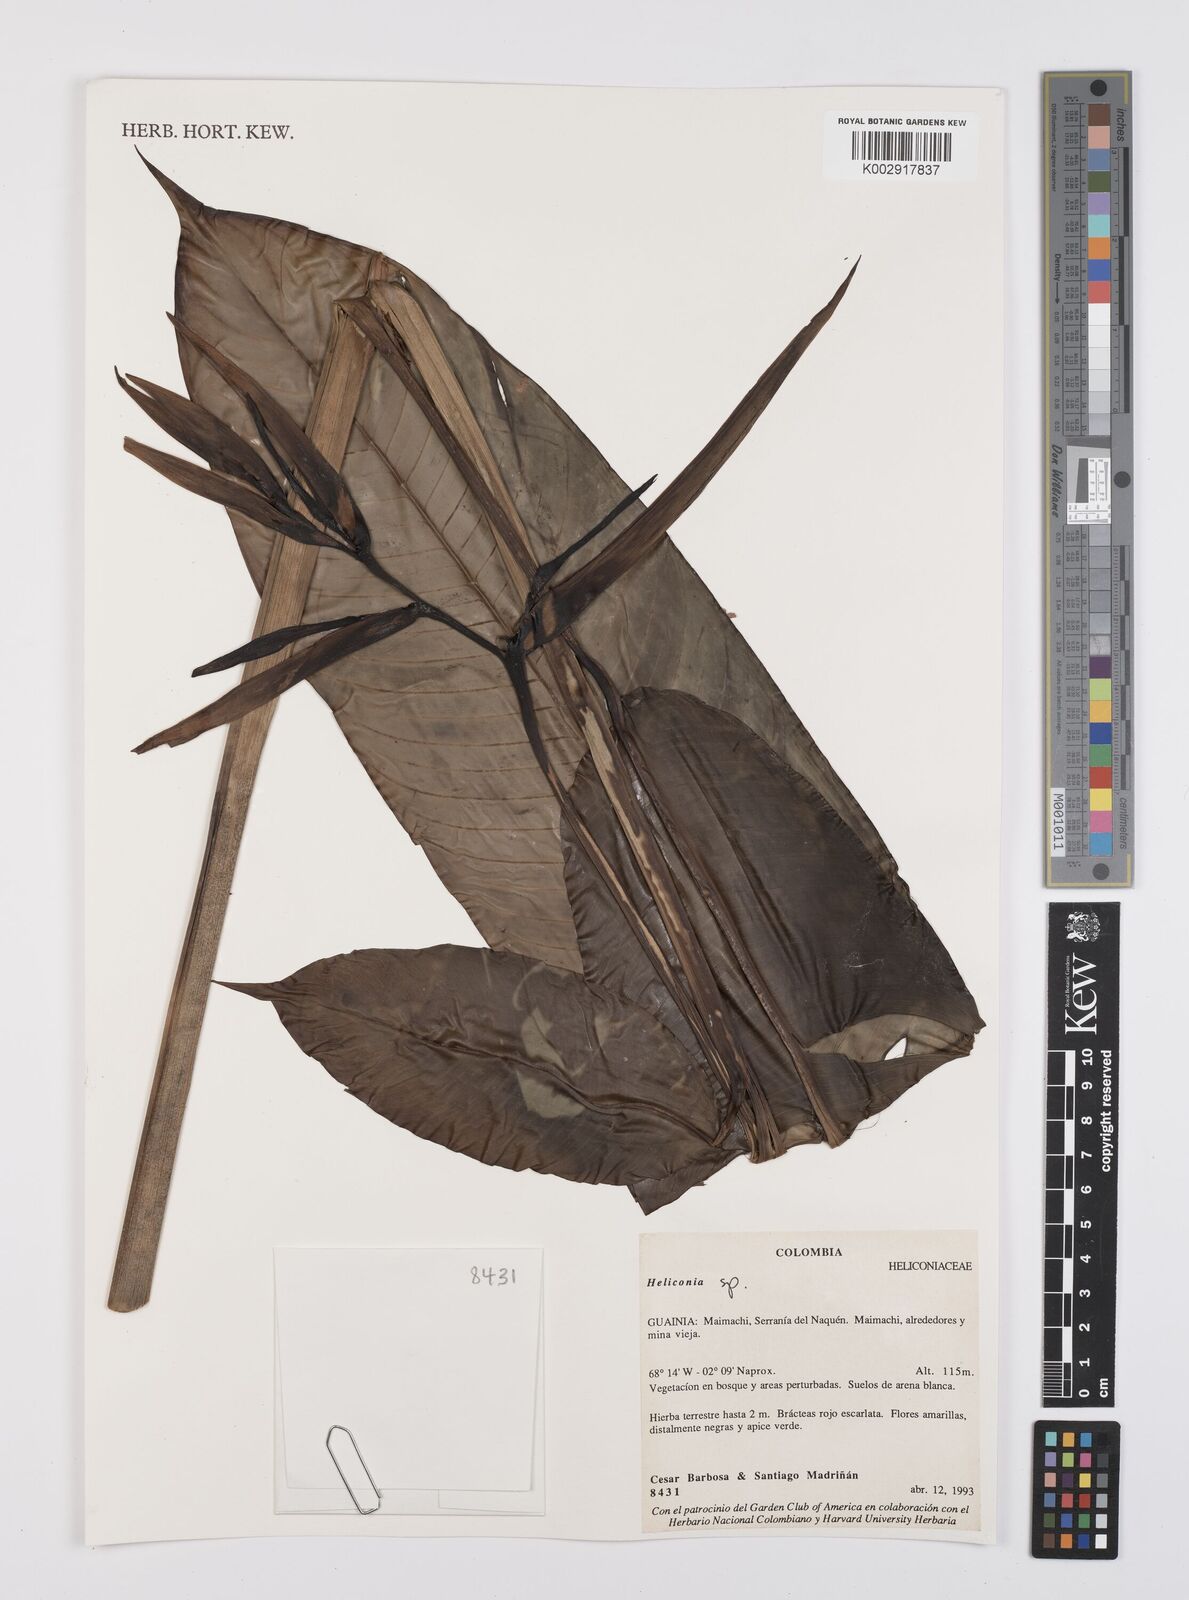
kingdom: Plantae
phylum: Tracheophyta
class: Liliopsida
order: Zingiberales
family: Heliconiaceae
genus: Heliconia
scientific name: Heliconia
